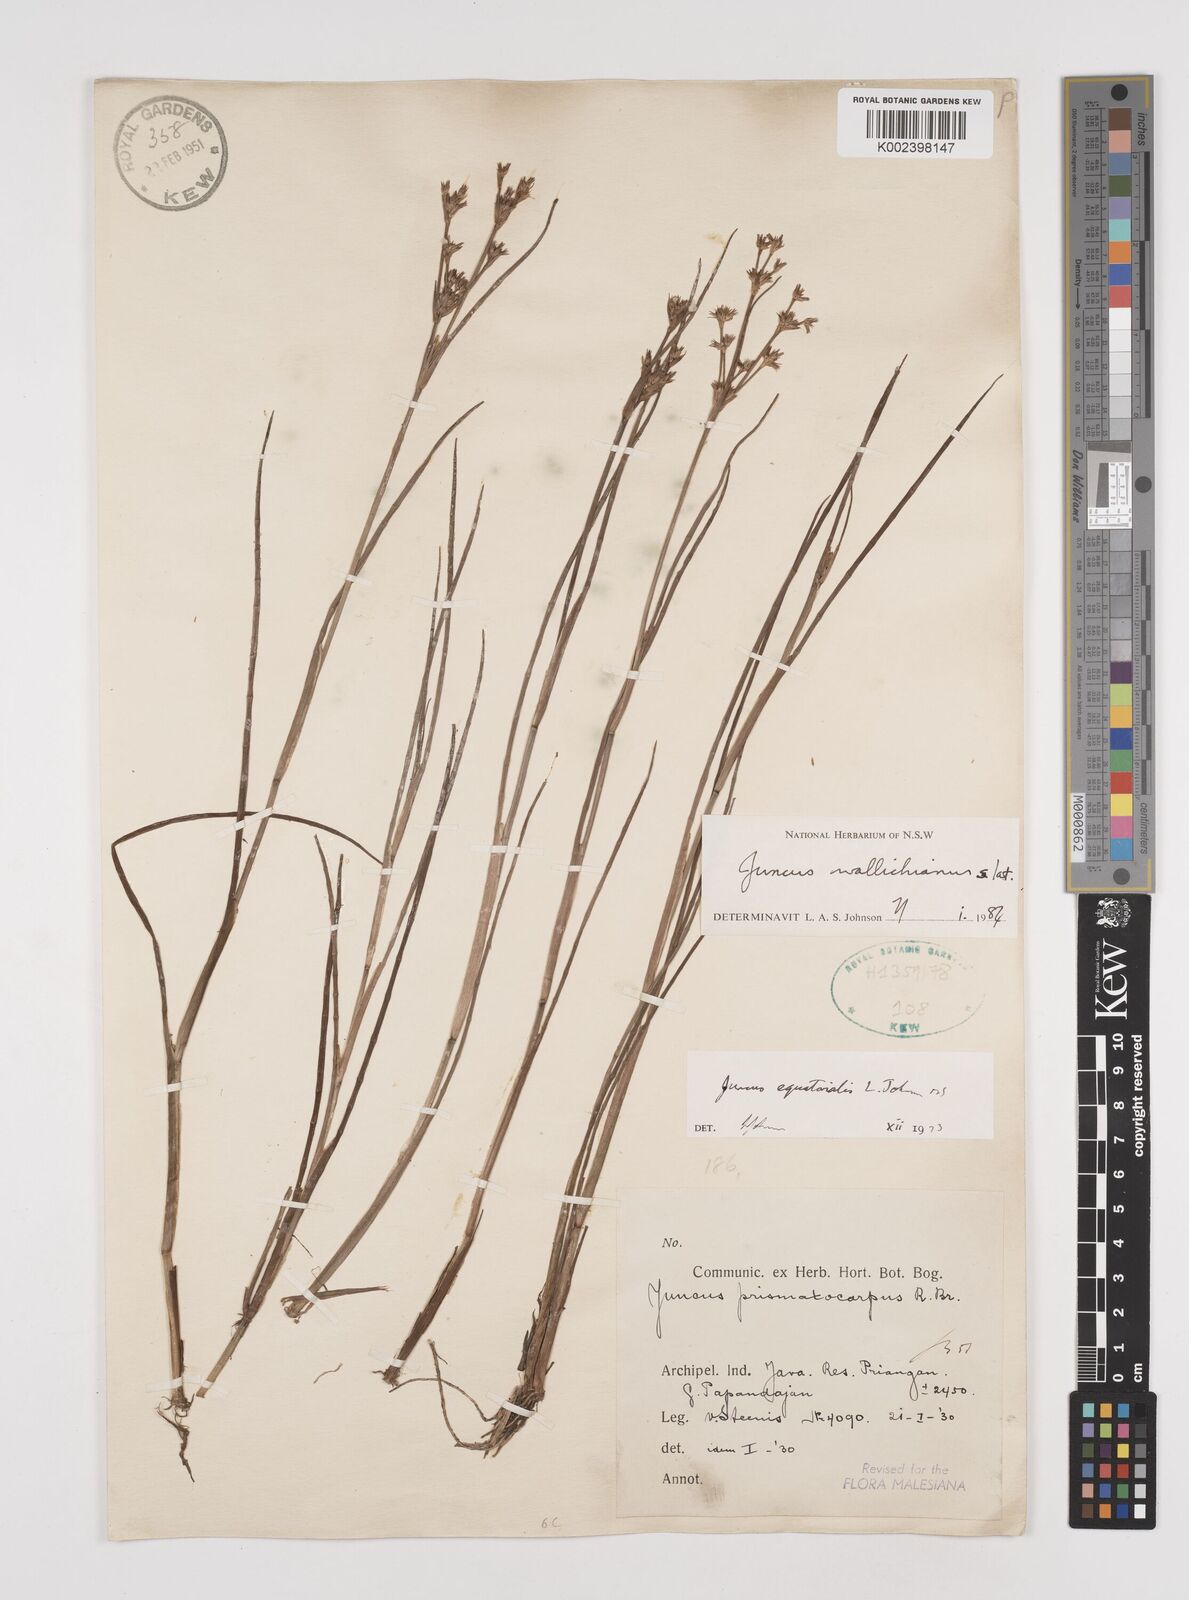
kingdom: Plantae
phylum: Tracheophyta
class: Liliopsida
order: Poales
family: Juncaceae
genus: Juncus
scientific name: Juncus wallichianus
